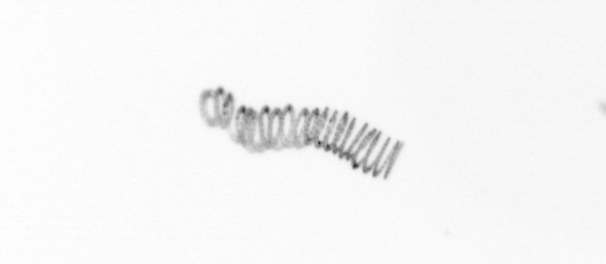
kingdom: Chromista
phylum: Ochrophyta
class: Bacillariophyceae
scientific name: Bacillariophyceae
